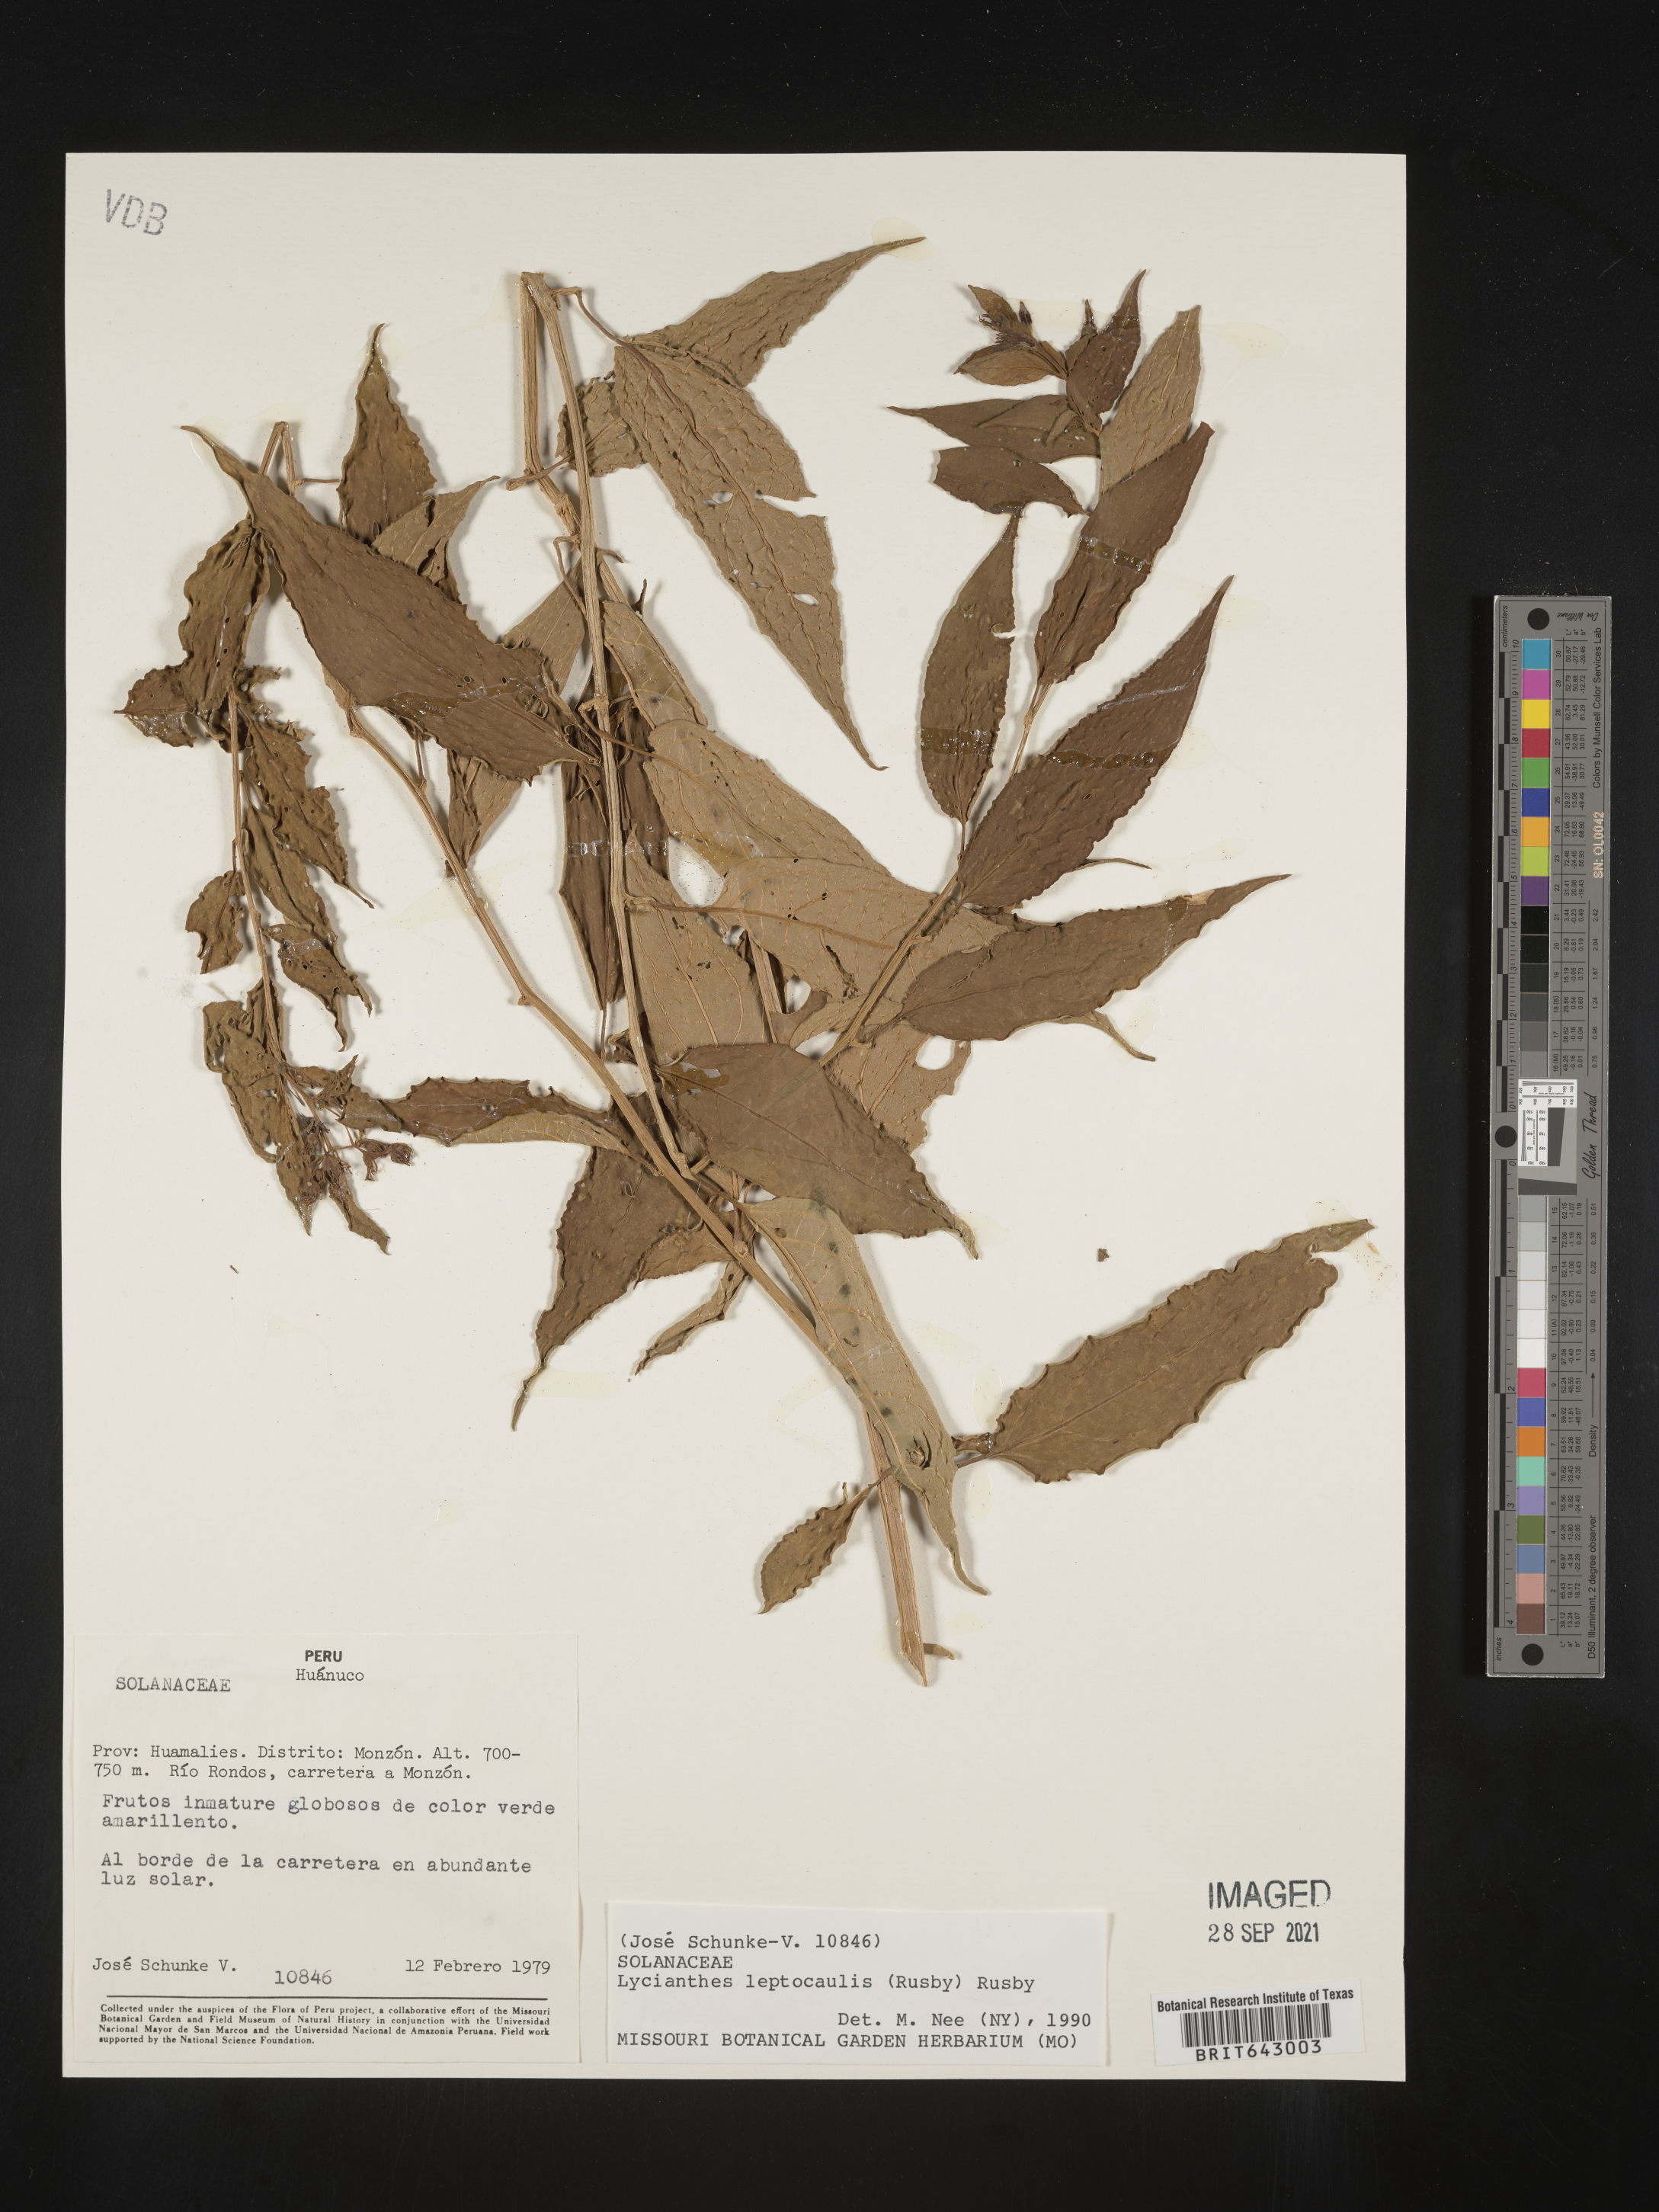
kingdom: Plantae
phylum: Tracheophyta
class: Magnoliopsida
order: Solanales
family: Solanaceae
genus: Lycianthes
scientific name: Lycianthes
